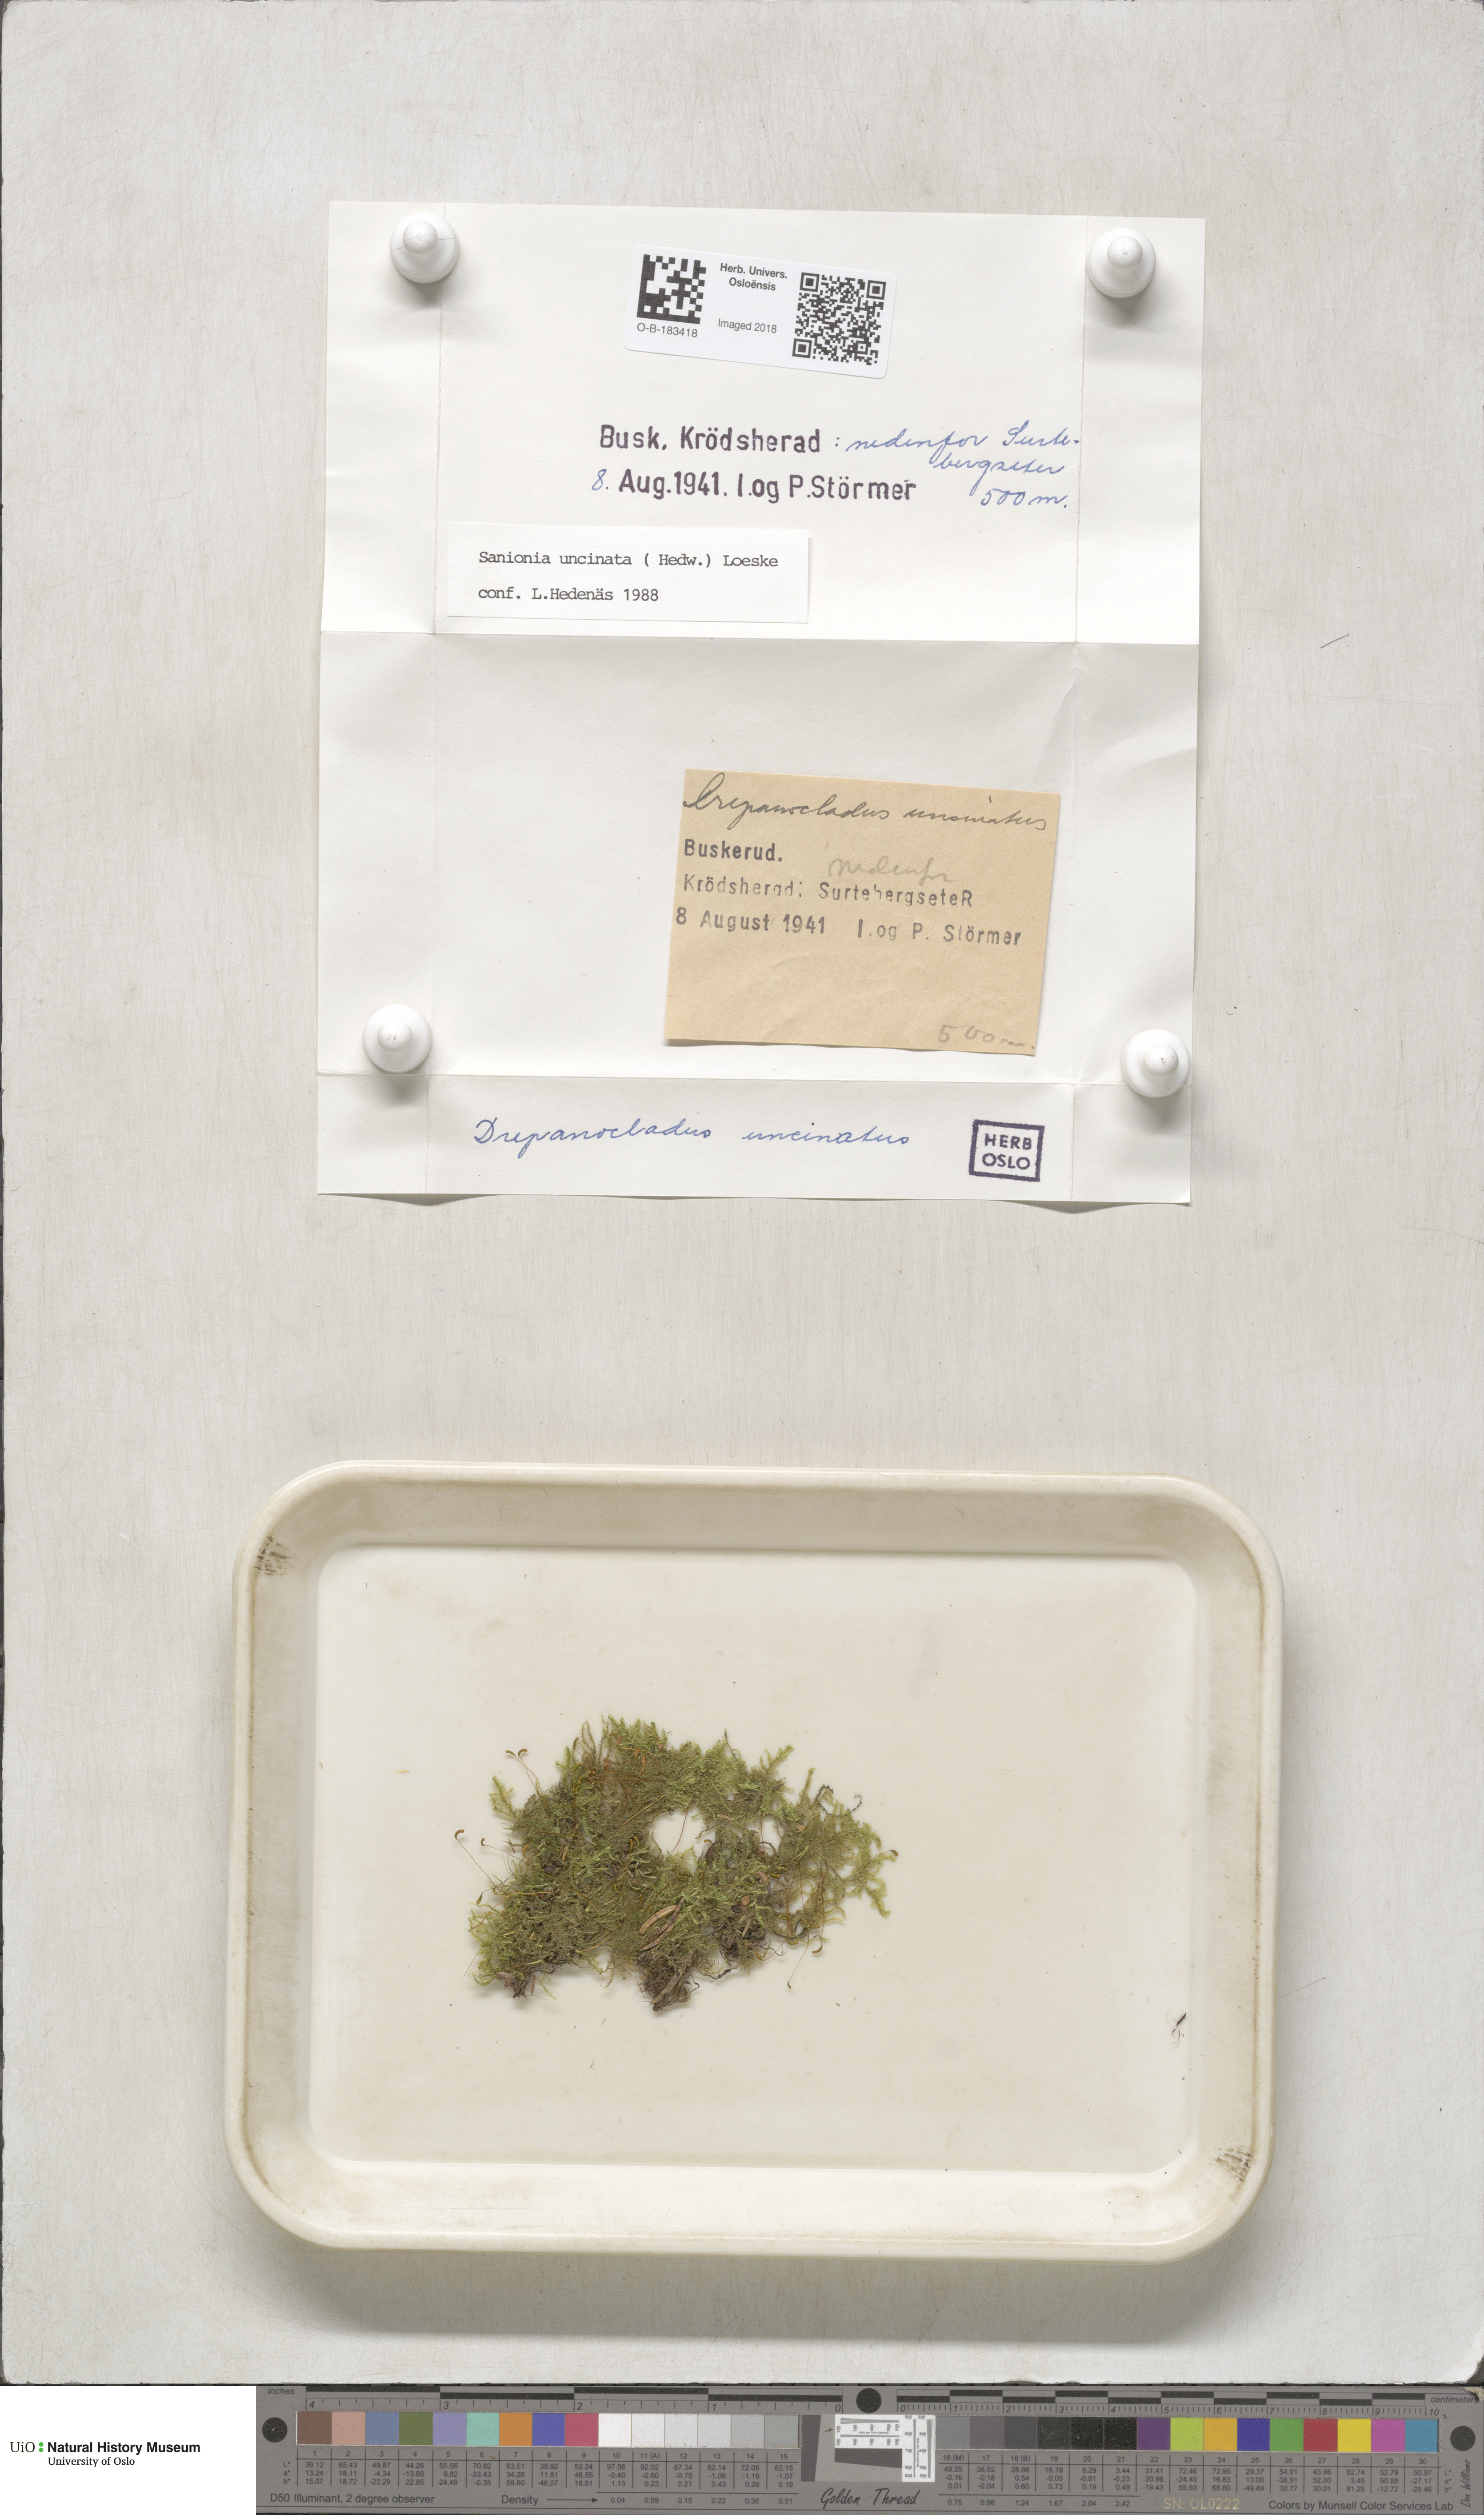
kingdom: Plantae
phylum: Bryophyta
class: Bryopsida
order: Hypnales
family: Scorpidiaceae
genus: Sanionia
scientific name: Sanionia uncinata
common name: Sickle moss
